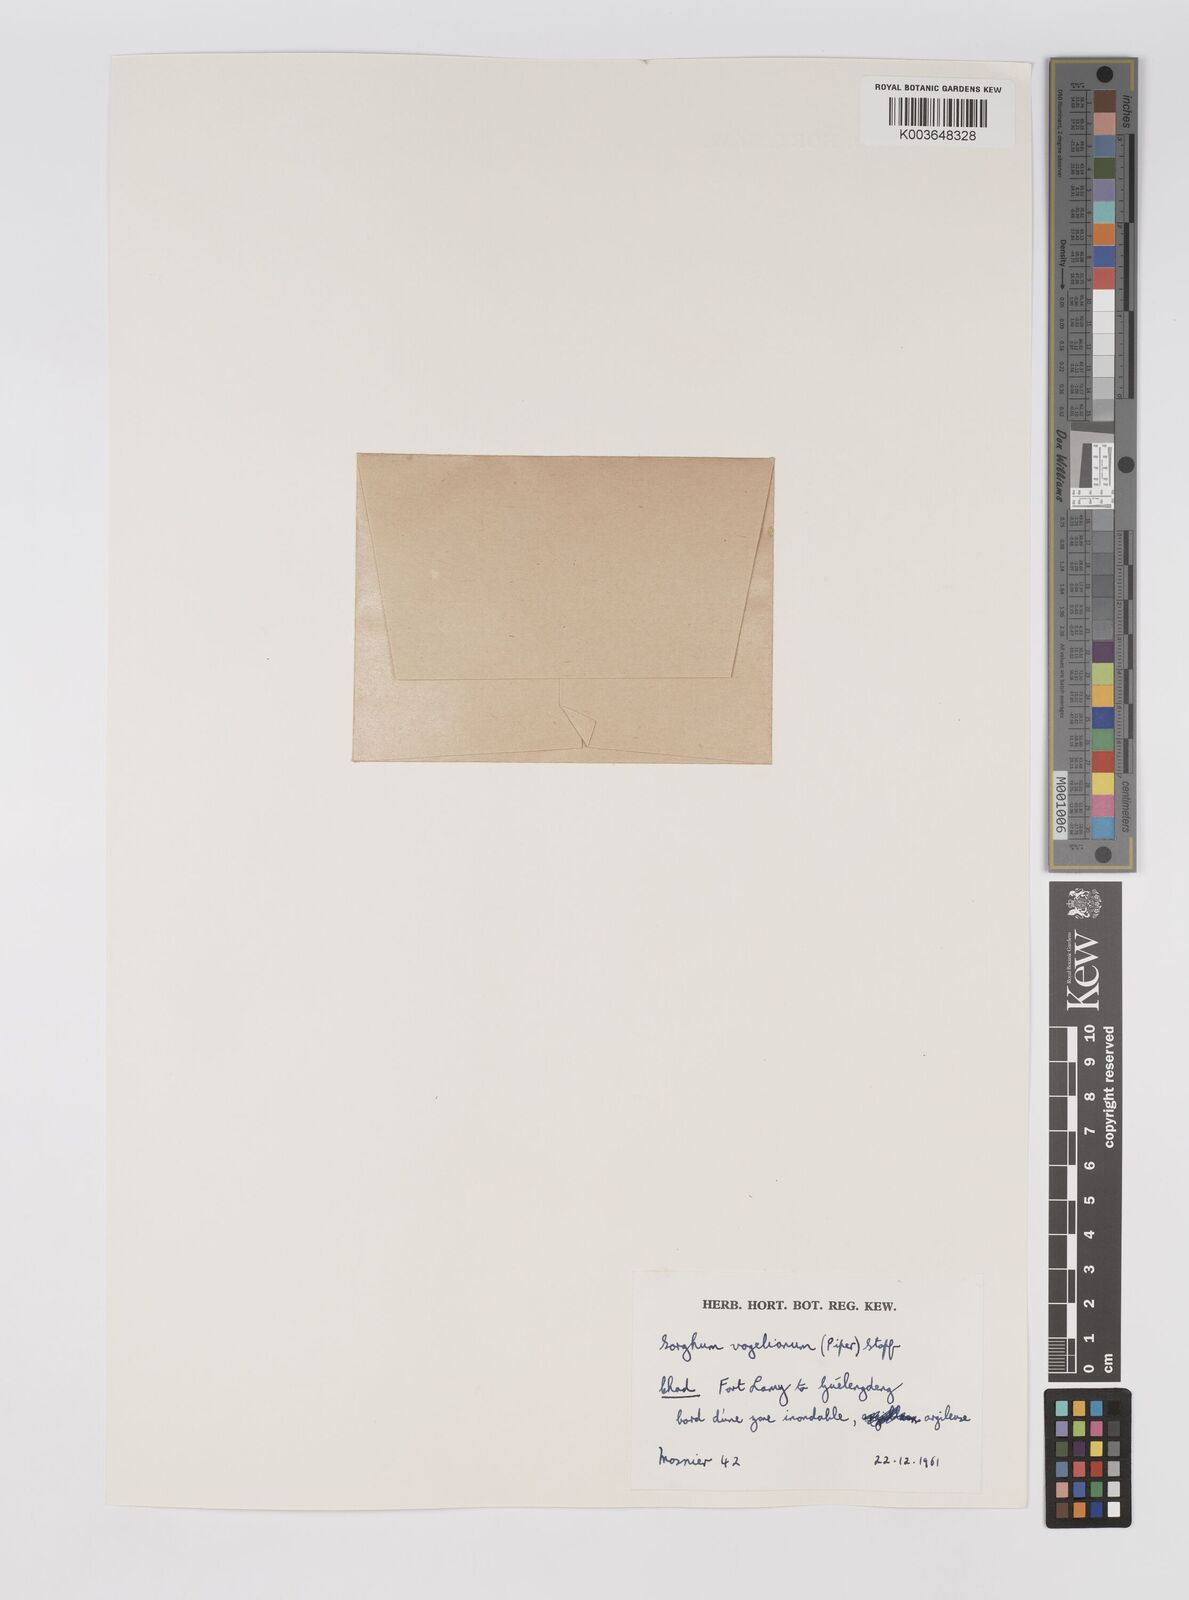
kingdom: Plantae
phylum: Tracheophyta
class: Liliopsida
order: Poales
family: Poaceae
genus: Sorghum
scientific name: Sorghum arundinaceum
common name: Sorghum
